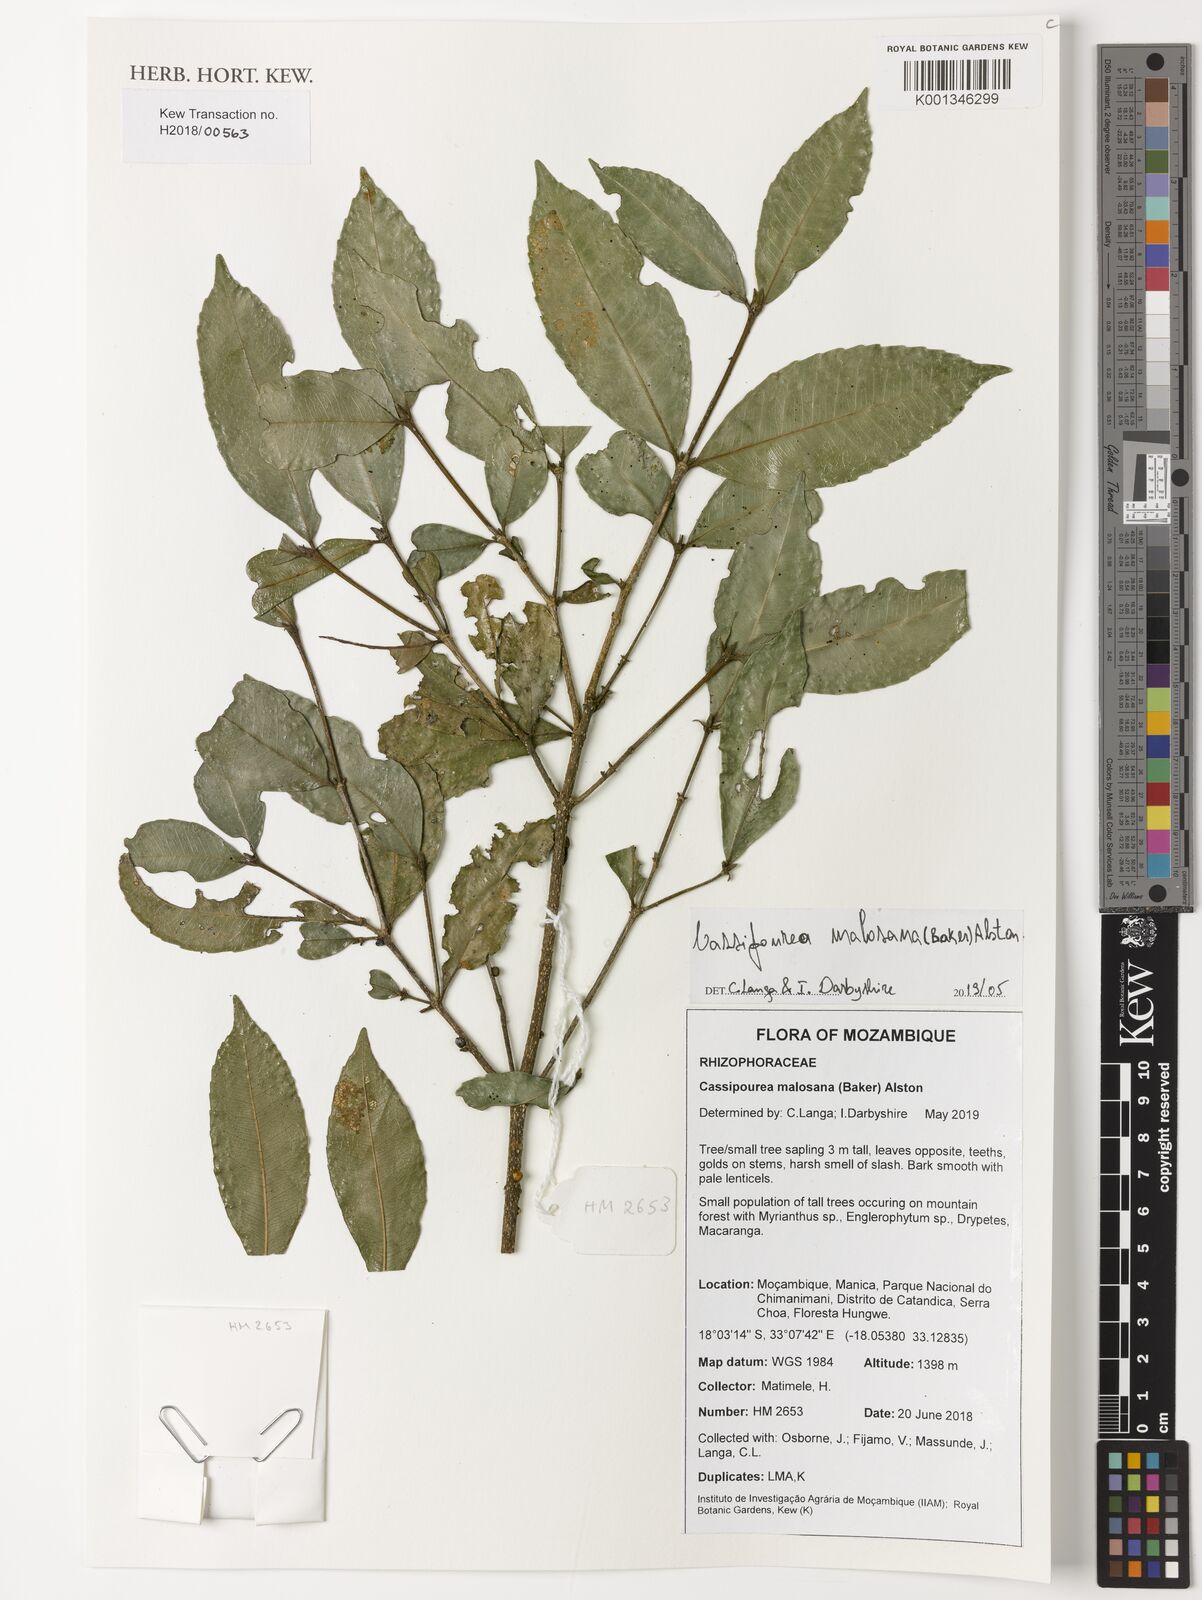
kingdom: Plantae
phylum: Tracheophyta
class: Magnoliopsida
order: Malpighiales
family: Rhizophoraceae
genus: Cassipourea
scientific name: Cassipourea malosana
